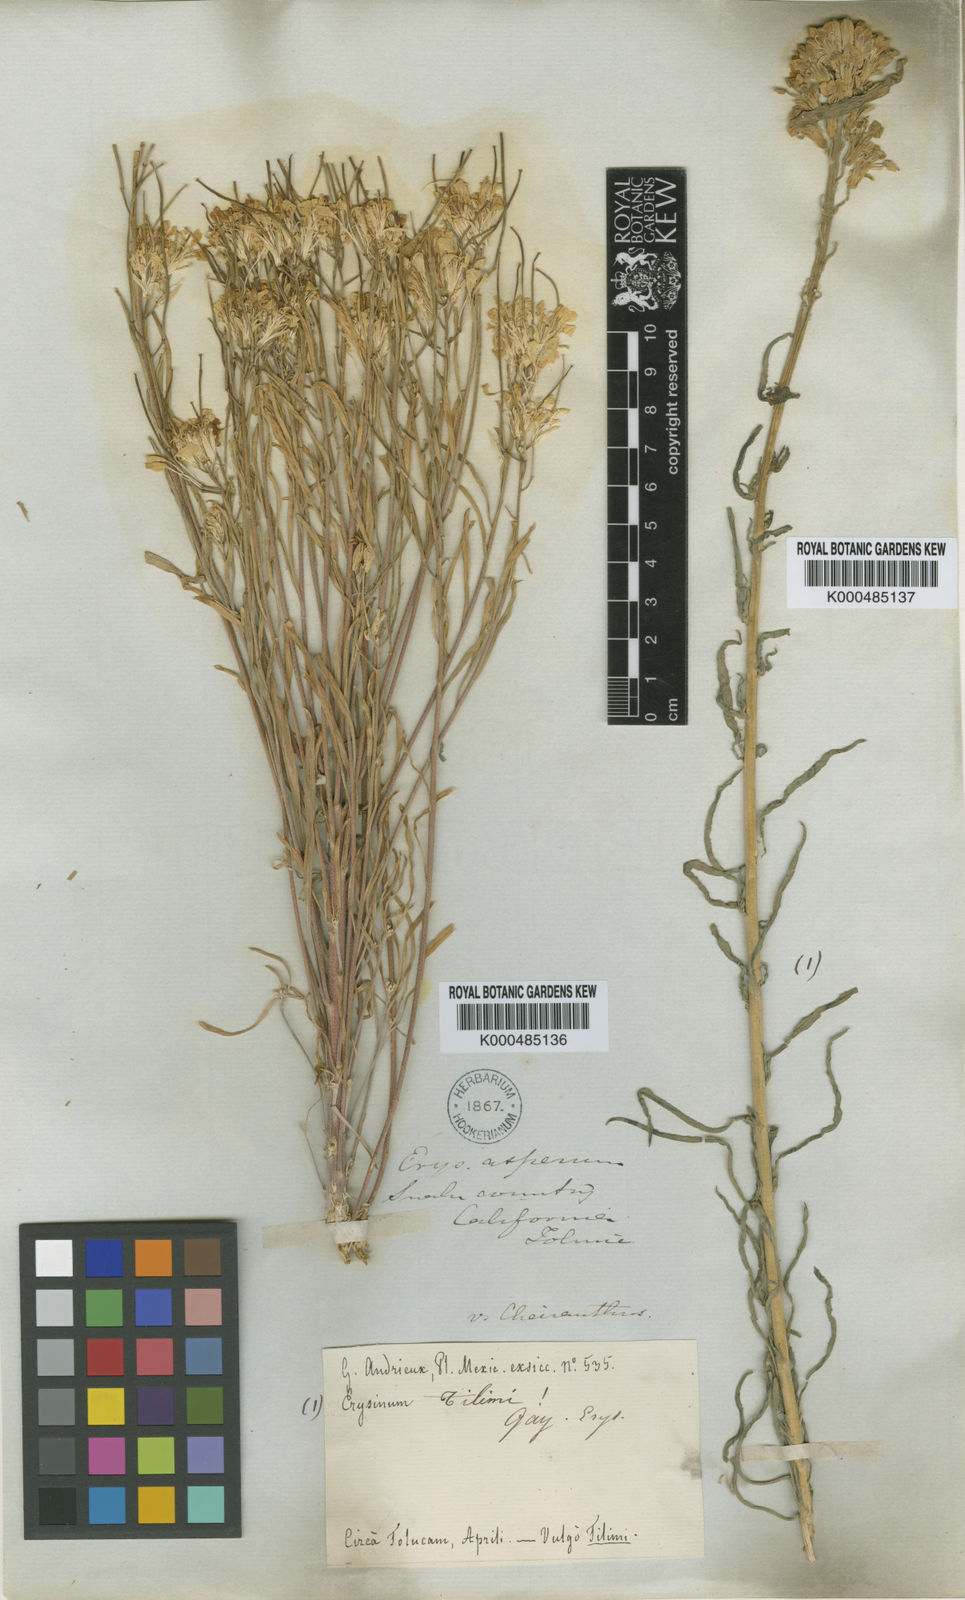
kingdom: Plantae
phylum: Tracheophyta
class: Magnoliopsida
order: Brassicales
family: Brassicaceae
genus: Erysimum
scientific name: Erysimum capitatum
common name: Western wallflower
